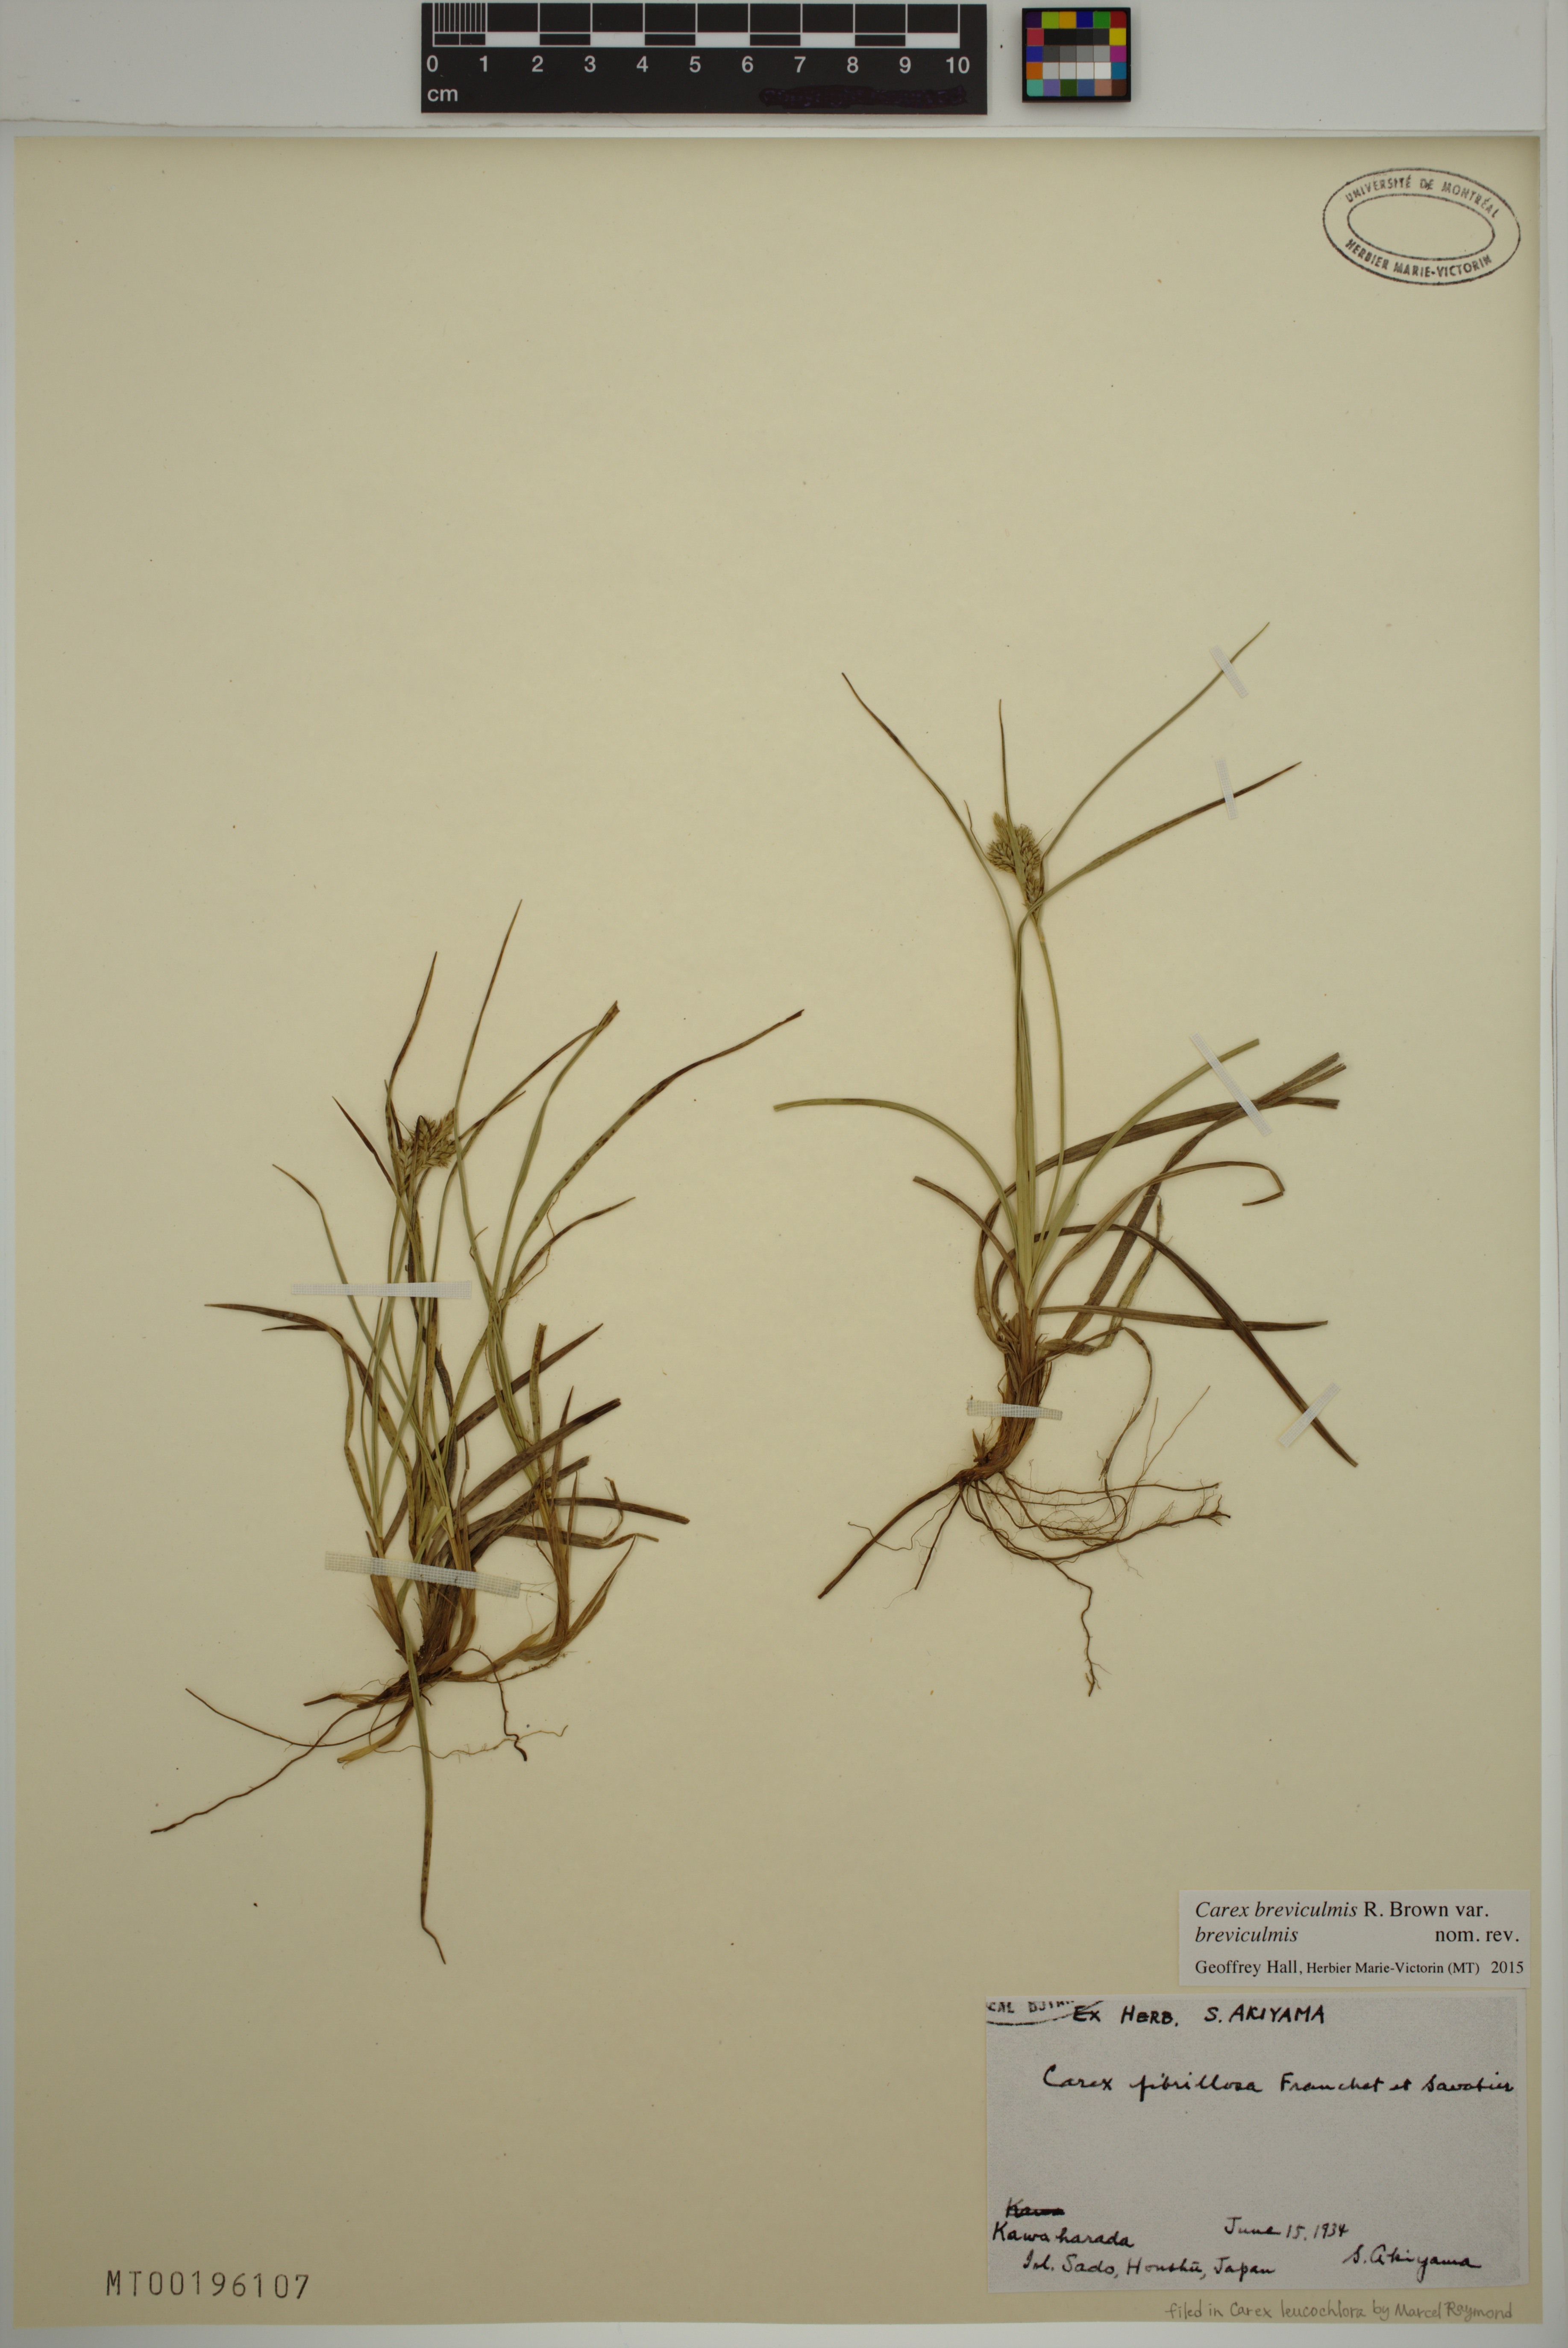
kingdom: Plantae
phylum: Tracheophyta
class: Liliopsida
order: Poales
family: Cyperaceae
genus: Carex
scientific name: Carex breviculmis
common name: Asian shortstem sedge
